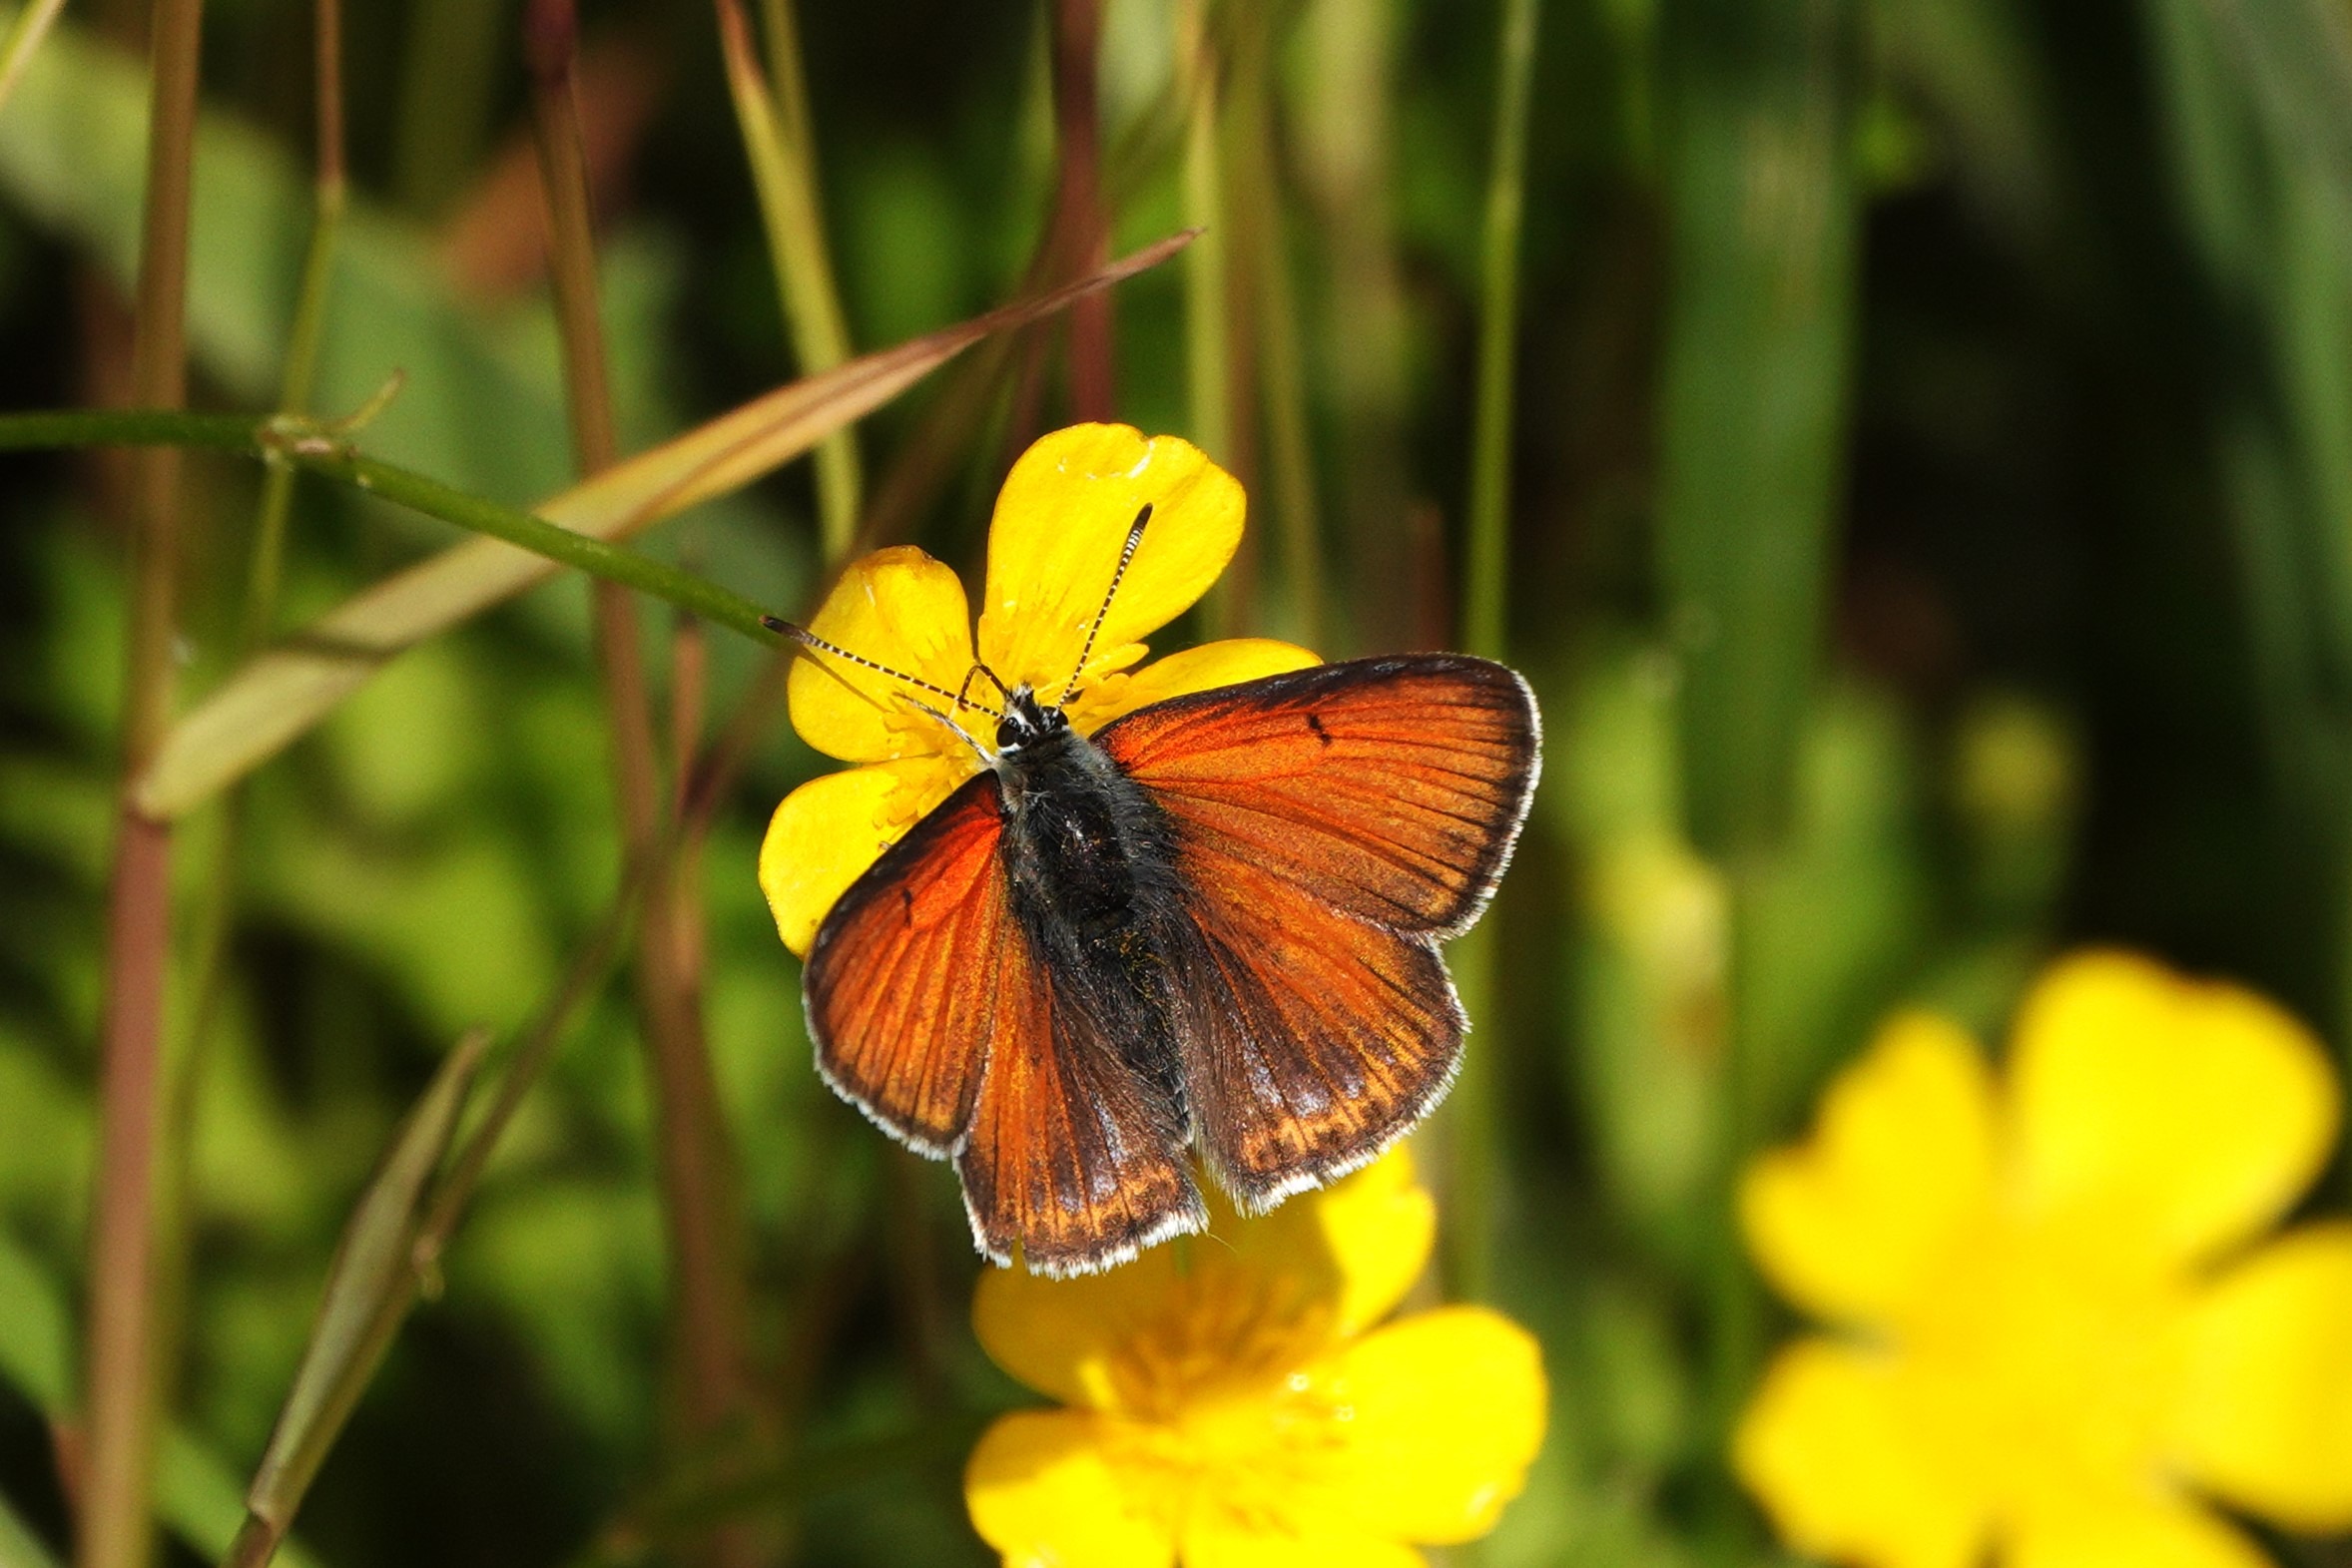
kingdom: Animalia
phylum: Arthropoda
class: Insecta
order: Lepidoptera
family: Lycaenidae
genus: Palaeochrysophanus
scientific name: Palaeochrysophanus hippothoe
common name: Violetrandet ildfugl
